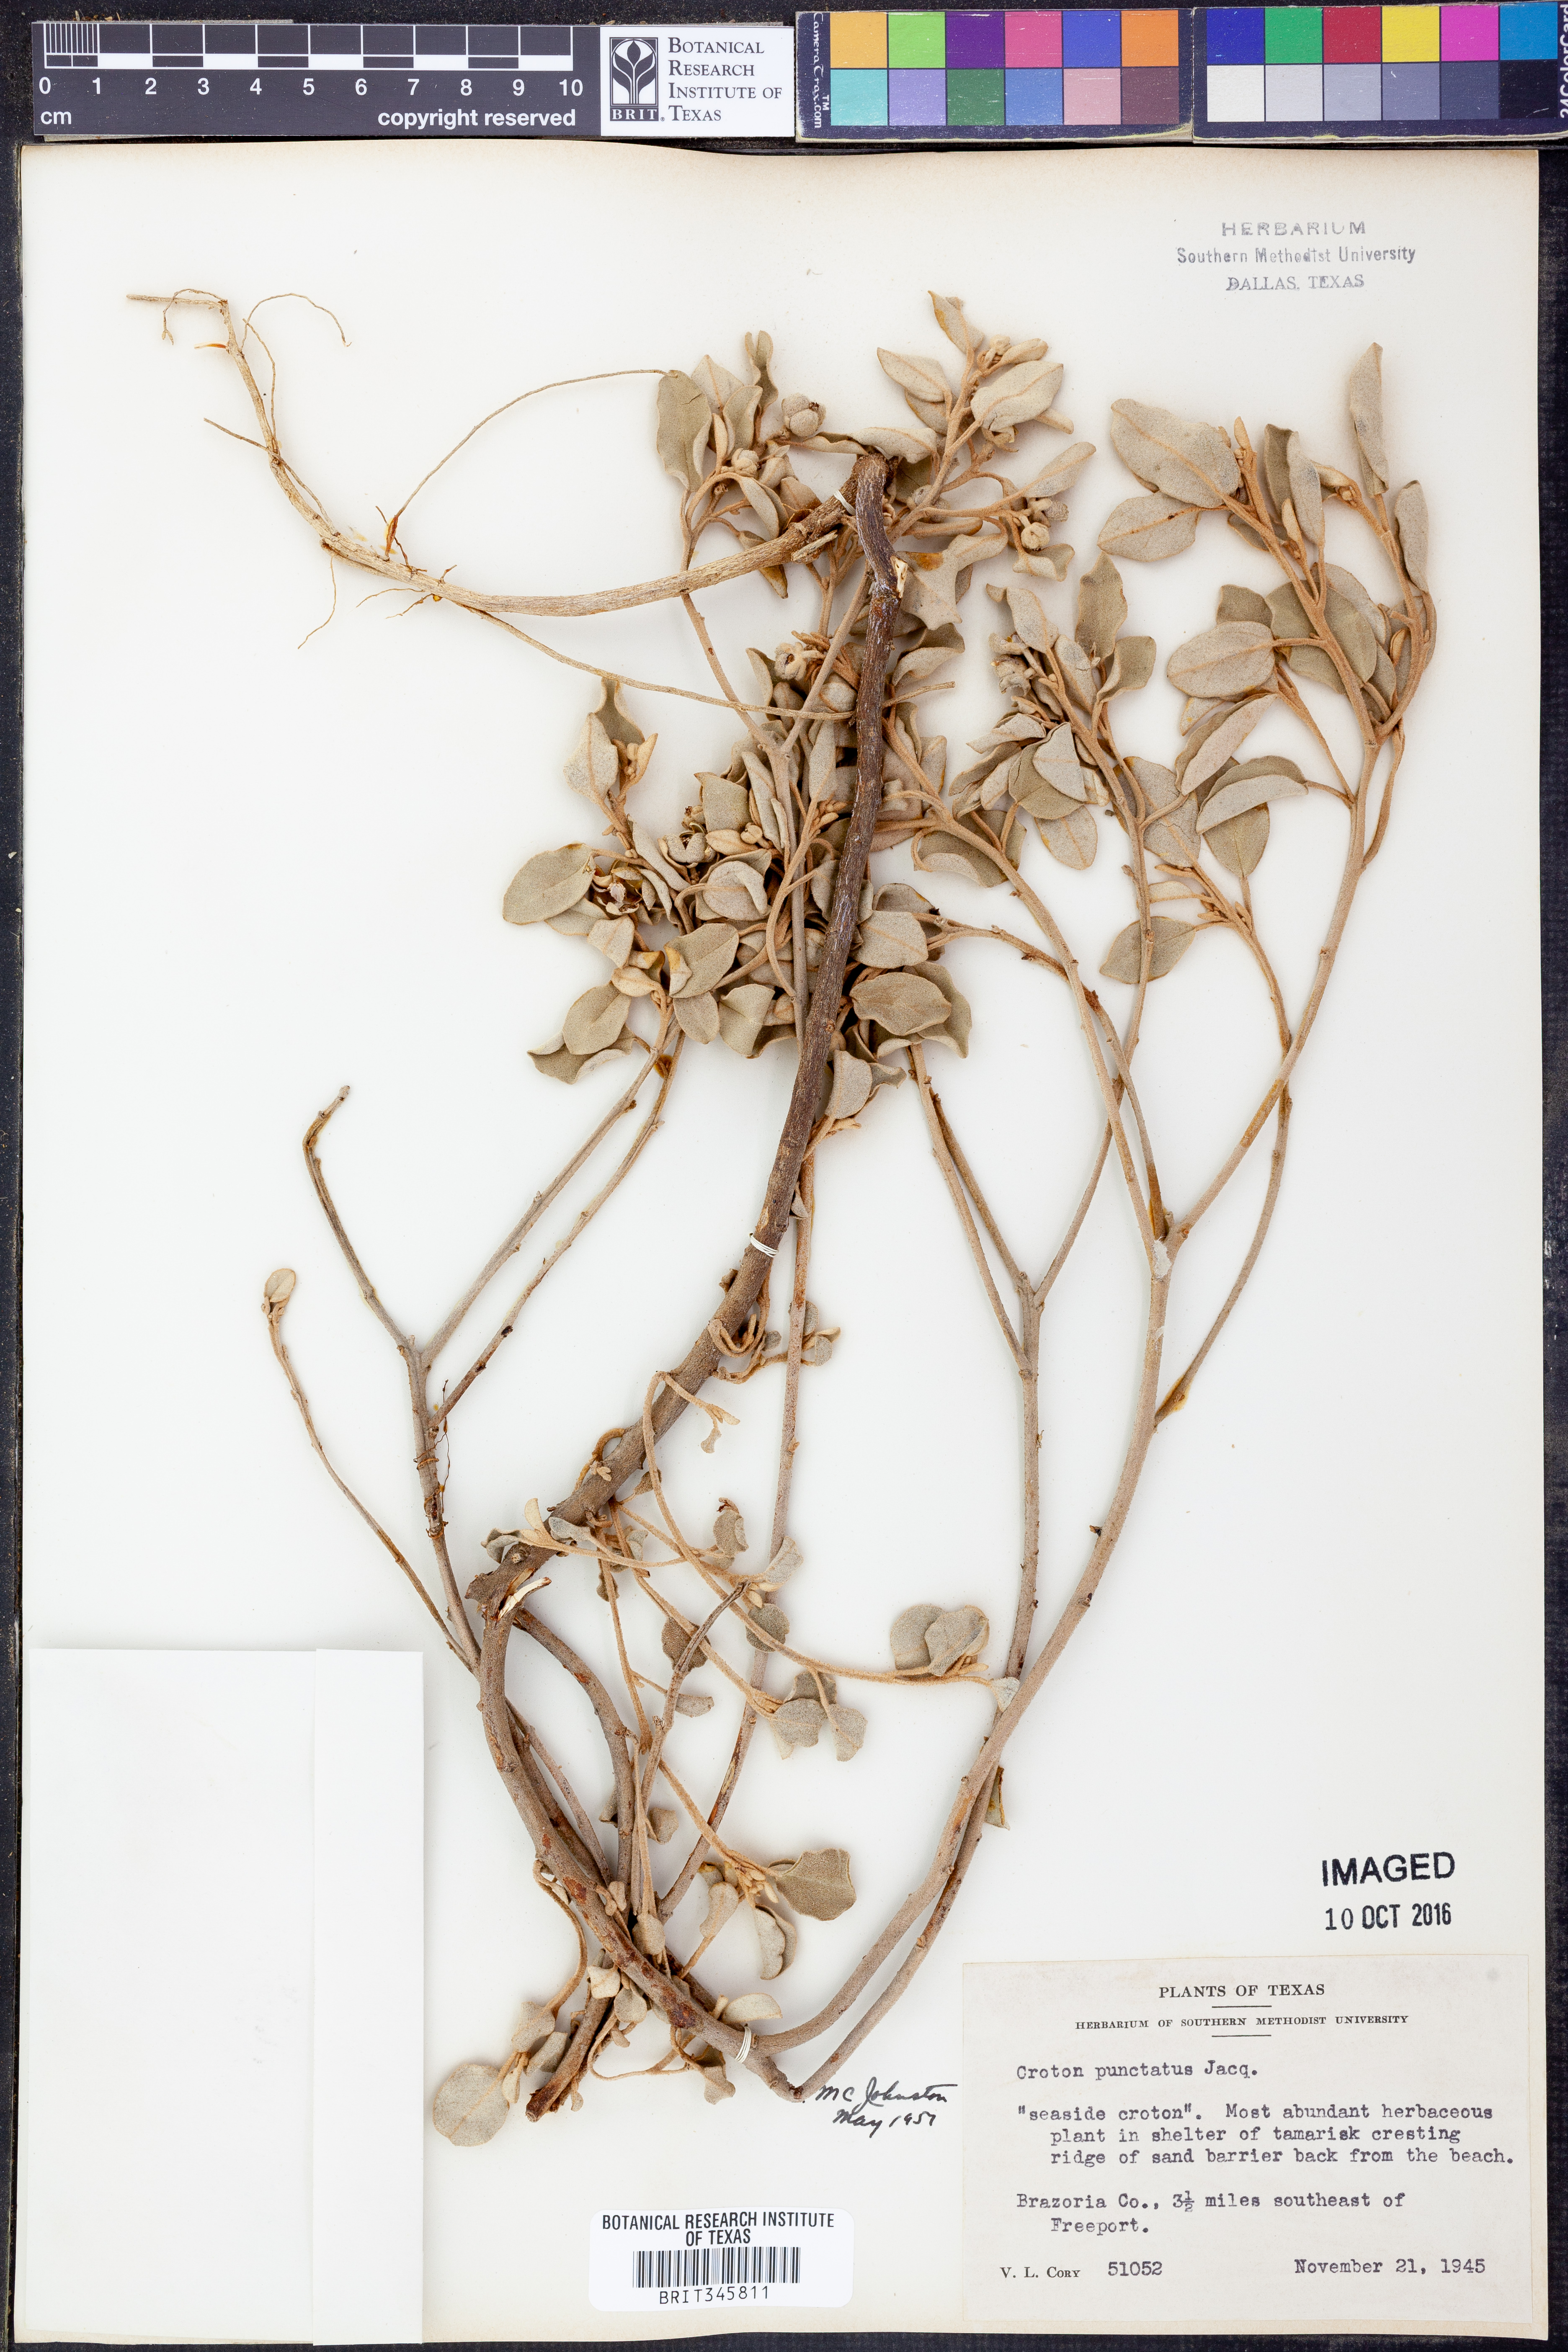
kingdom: Plantae
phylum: Tracheophyta
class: Magnoliopsida
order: Malpighiales
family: Euphorbiaceae
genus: Croton
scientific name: Croton punctatus
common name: Beach-tea
